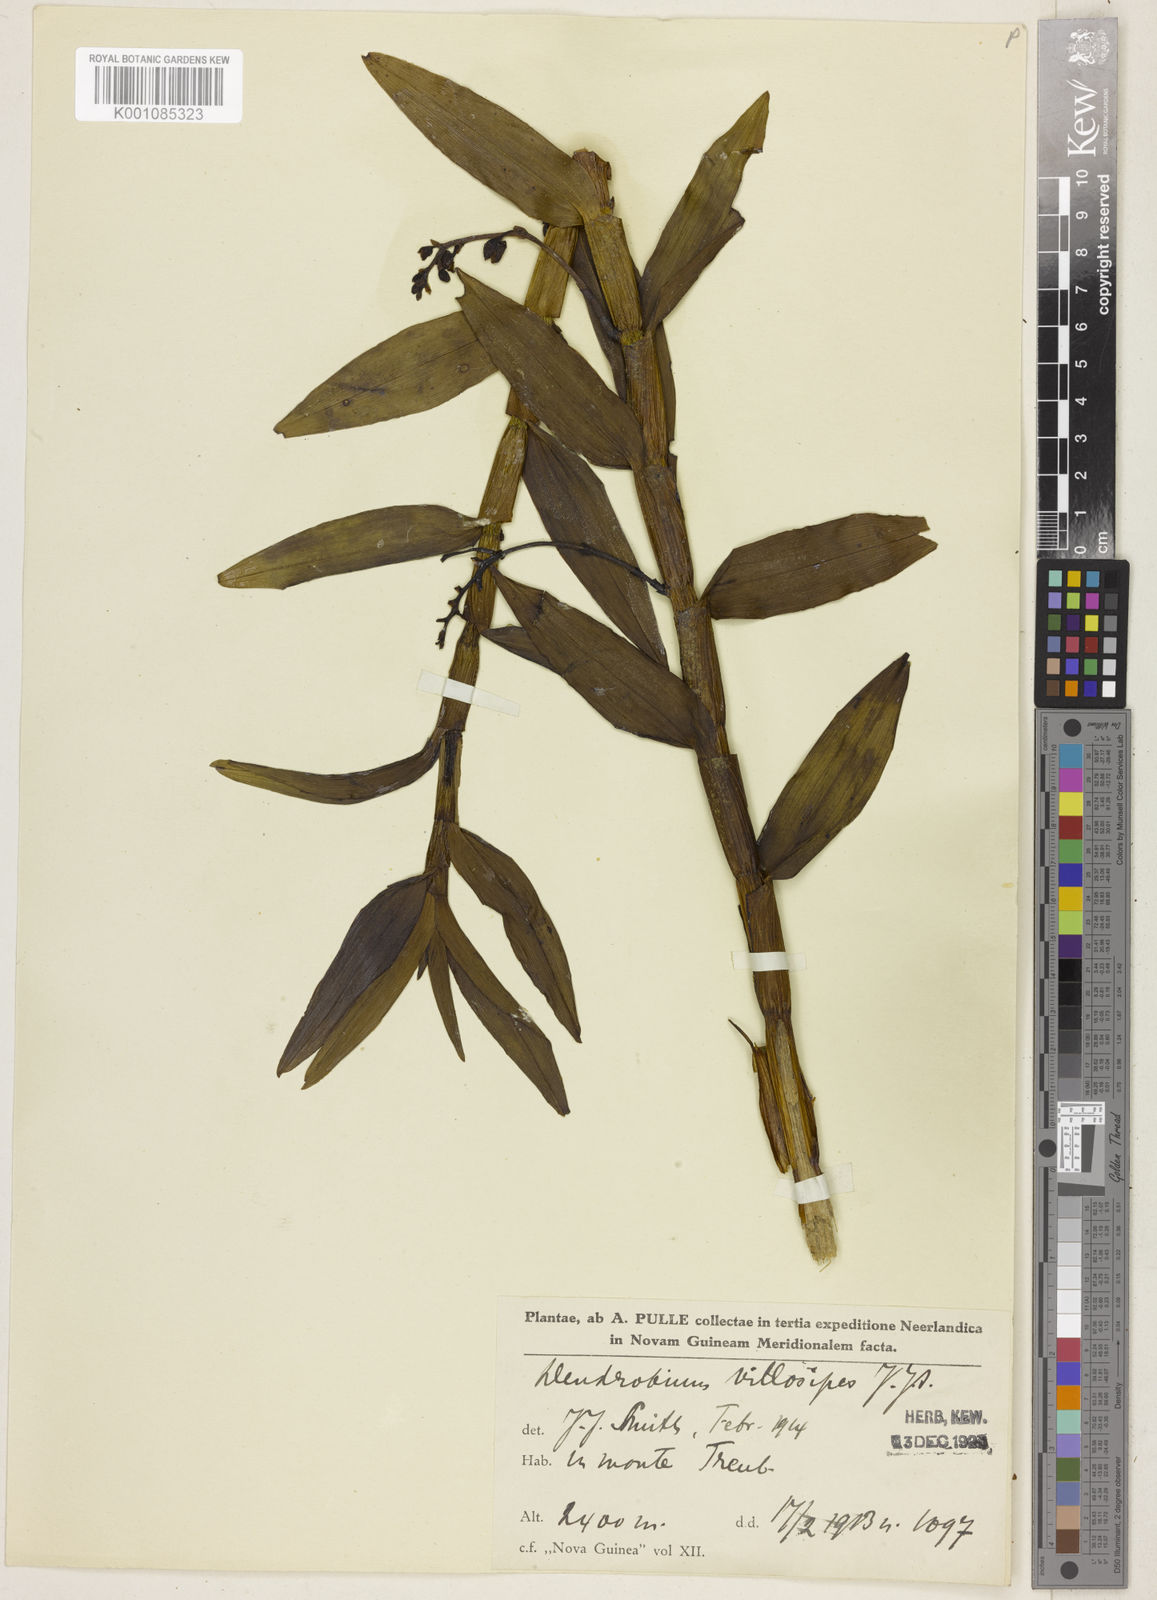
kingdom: Plantae
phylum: Tracheophyta
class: Liliopsida
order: Asparagales
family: Orchidaceae
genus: Dendrobium
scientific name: Dendrobium prostheciglossum
